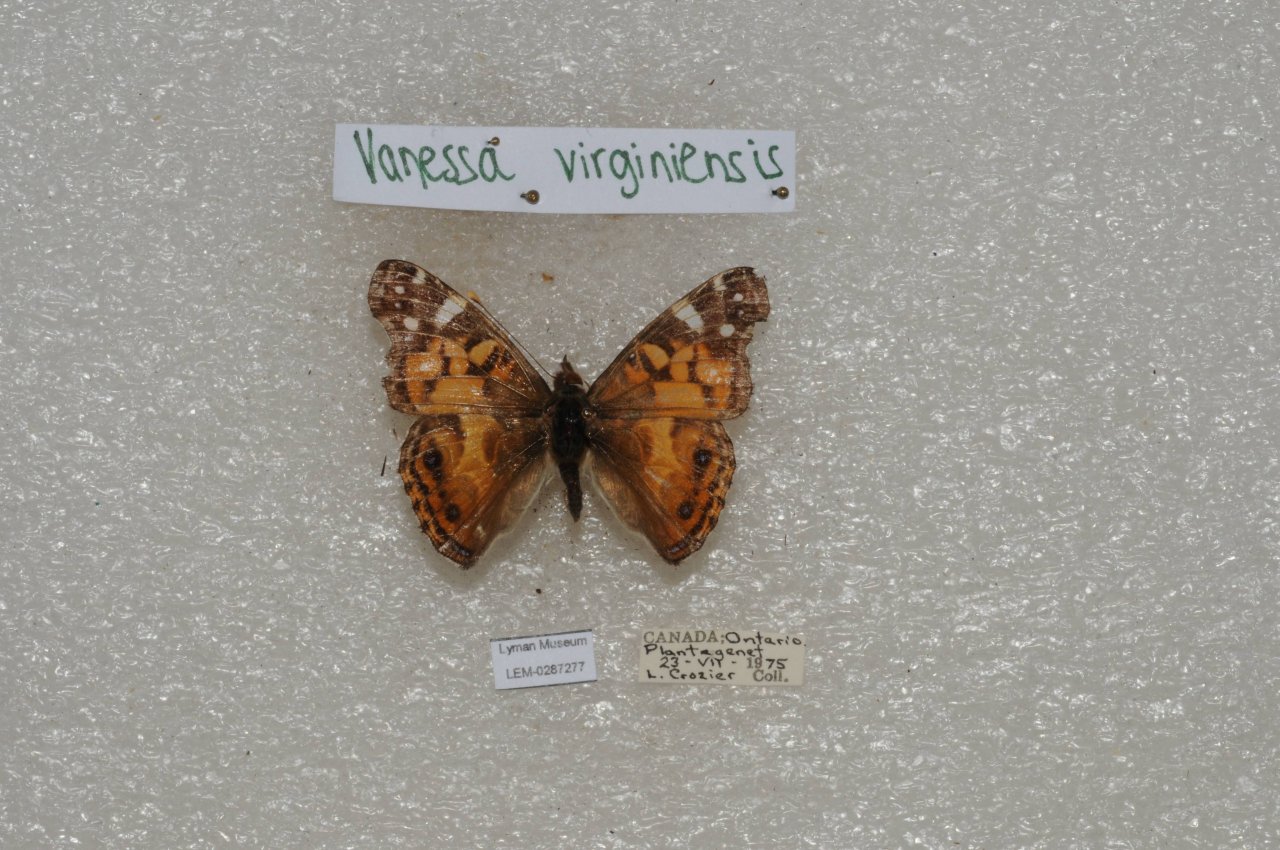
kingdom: Animalia
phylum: Arthropoda
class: Insecta
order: Lepidoptera
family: Nymphalidae
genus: Vanessa
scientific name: Vanessa virginiensis
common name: American Lady
